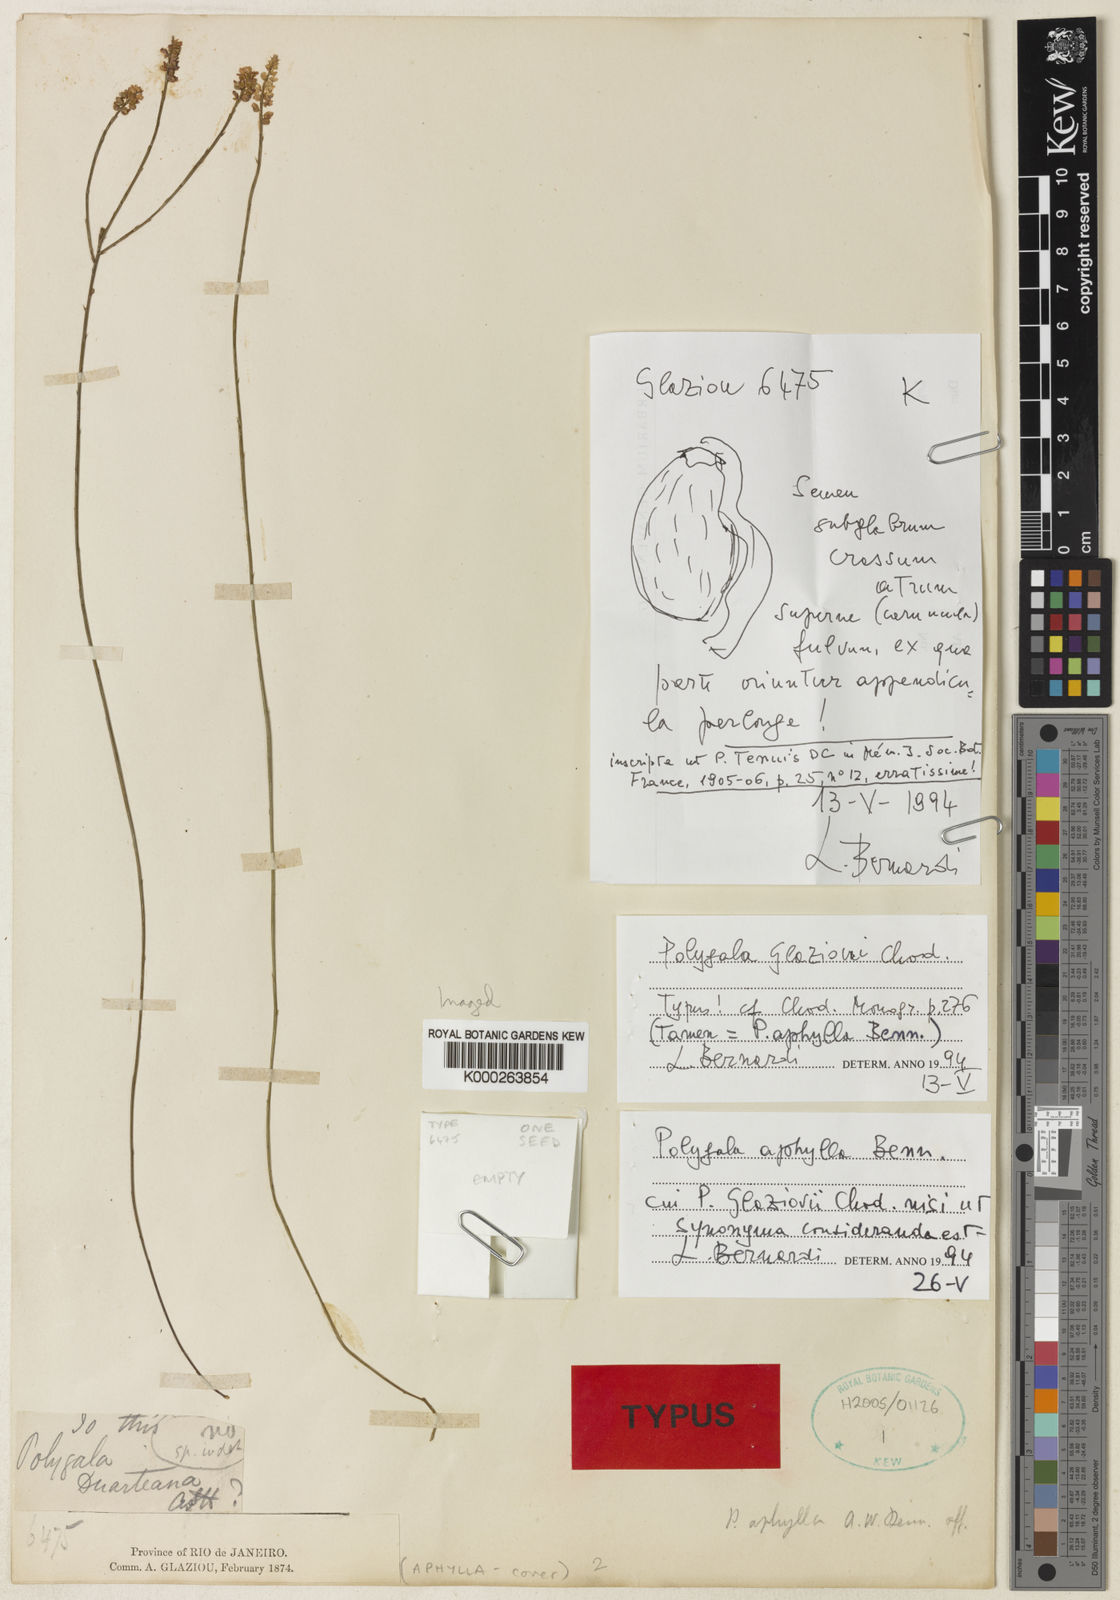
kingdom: Plantae
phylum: Tracheophyta
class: Magnoliopsida
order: Fabales
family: Polygalaceae
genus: Polygala
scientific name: Polygala
